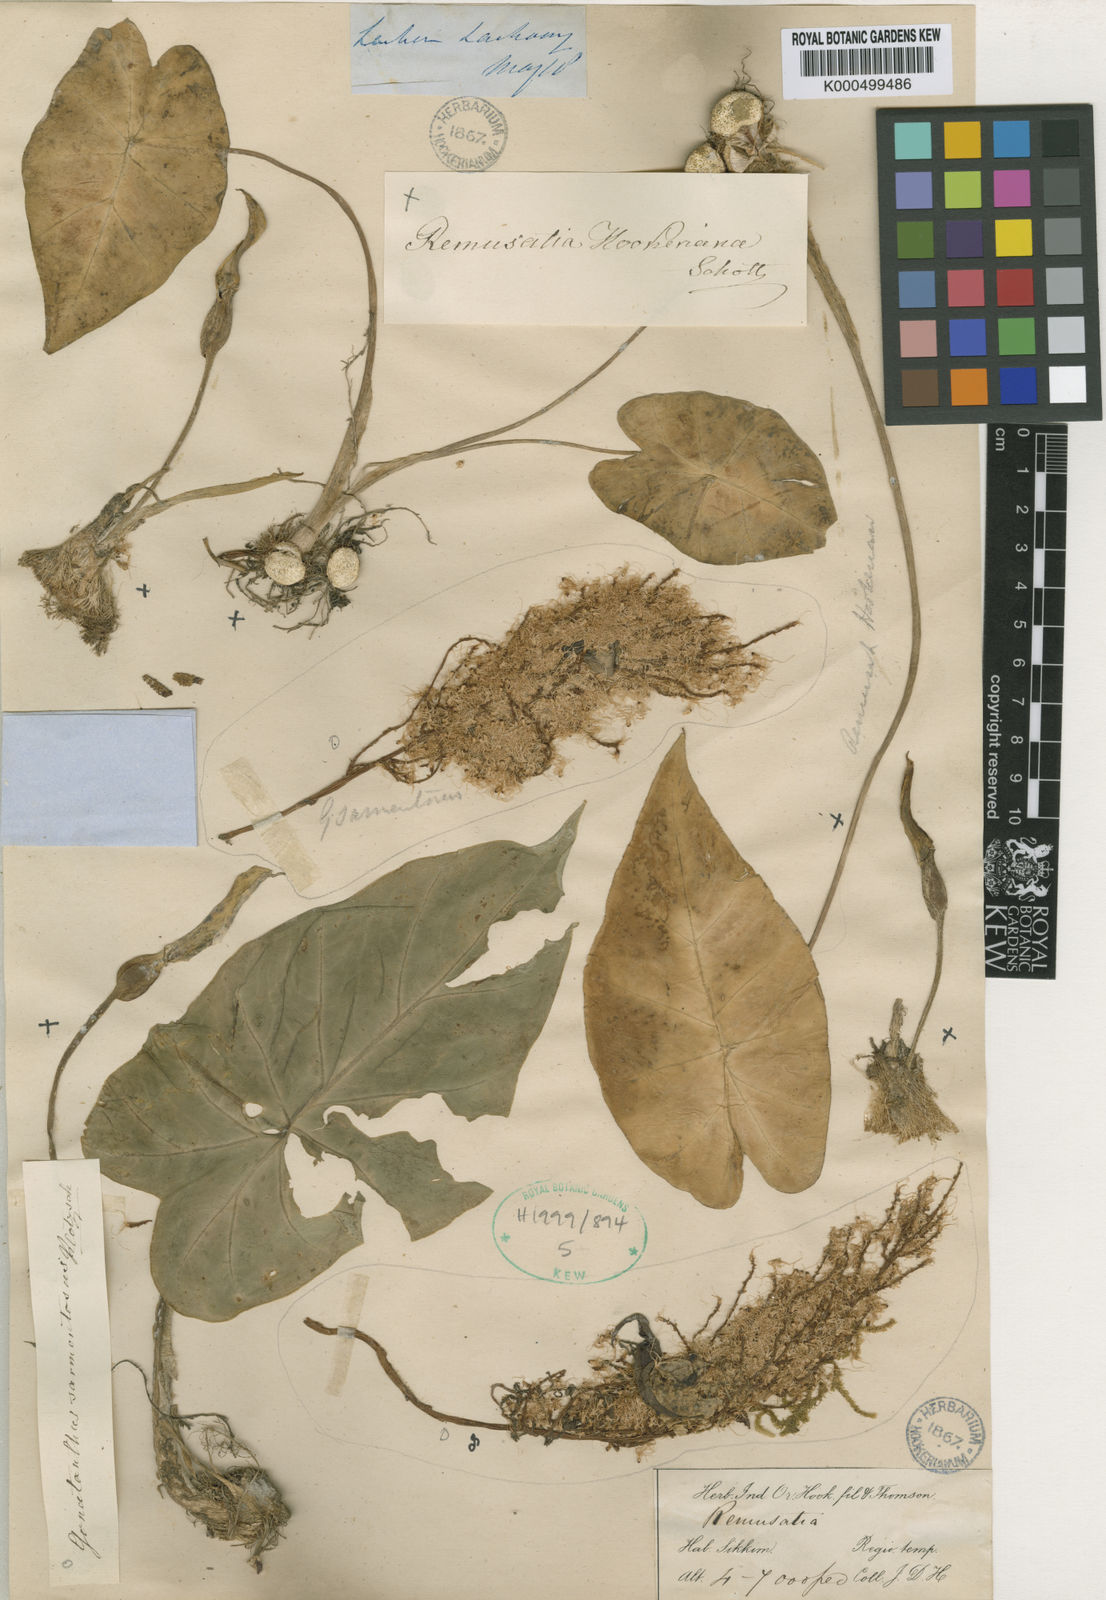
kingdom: Plantae
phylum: Tracheophyta
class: Liliopsida
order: Alismatales
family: Araceae
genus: Remusatia
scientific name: Remusatia pumila
